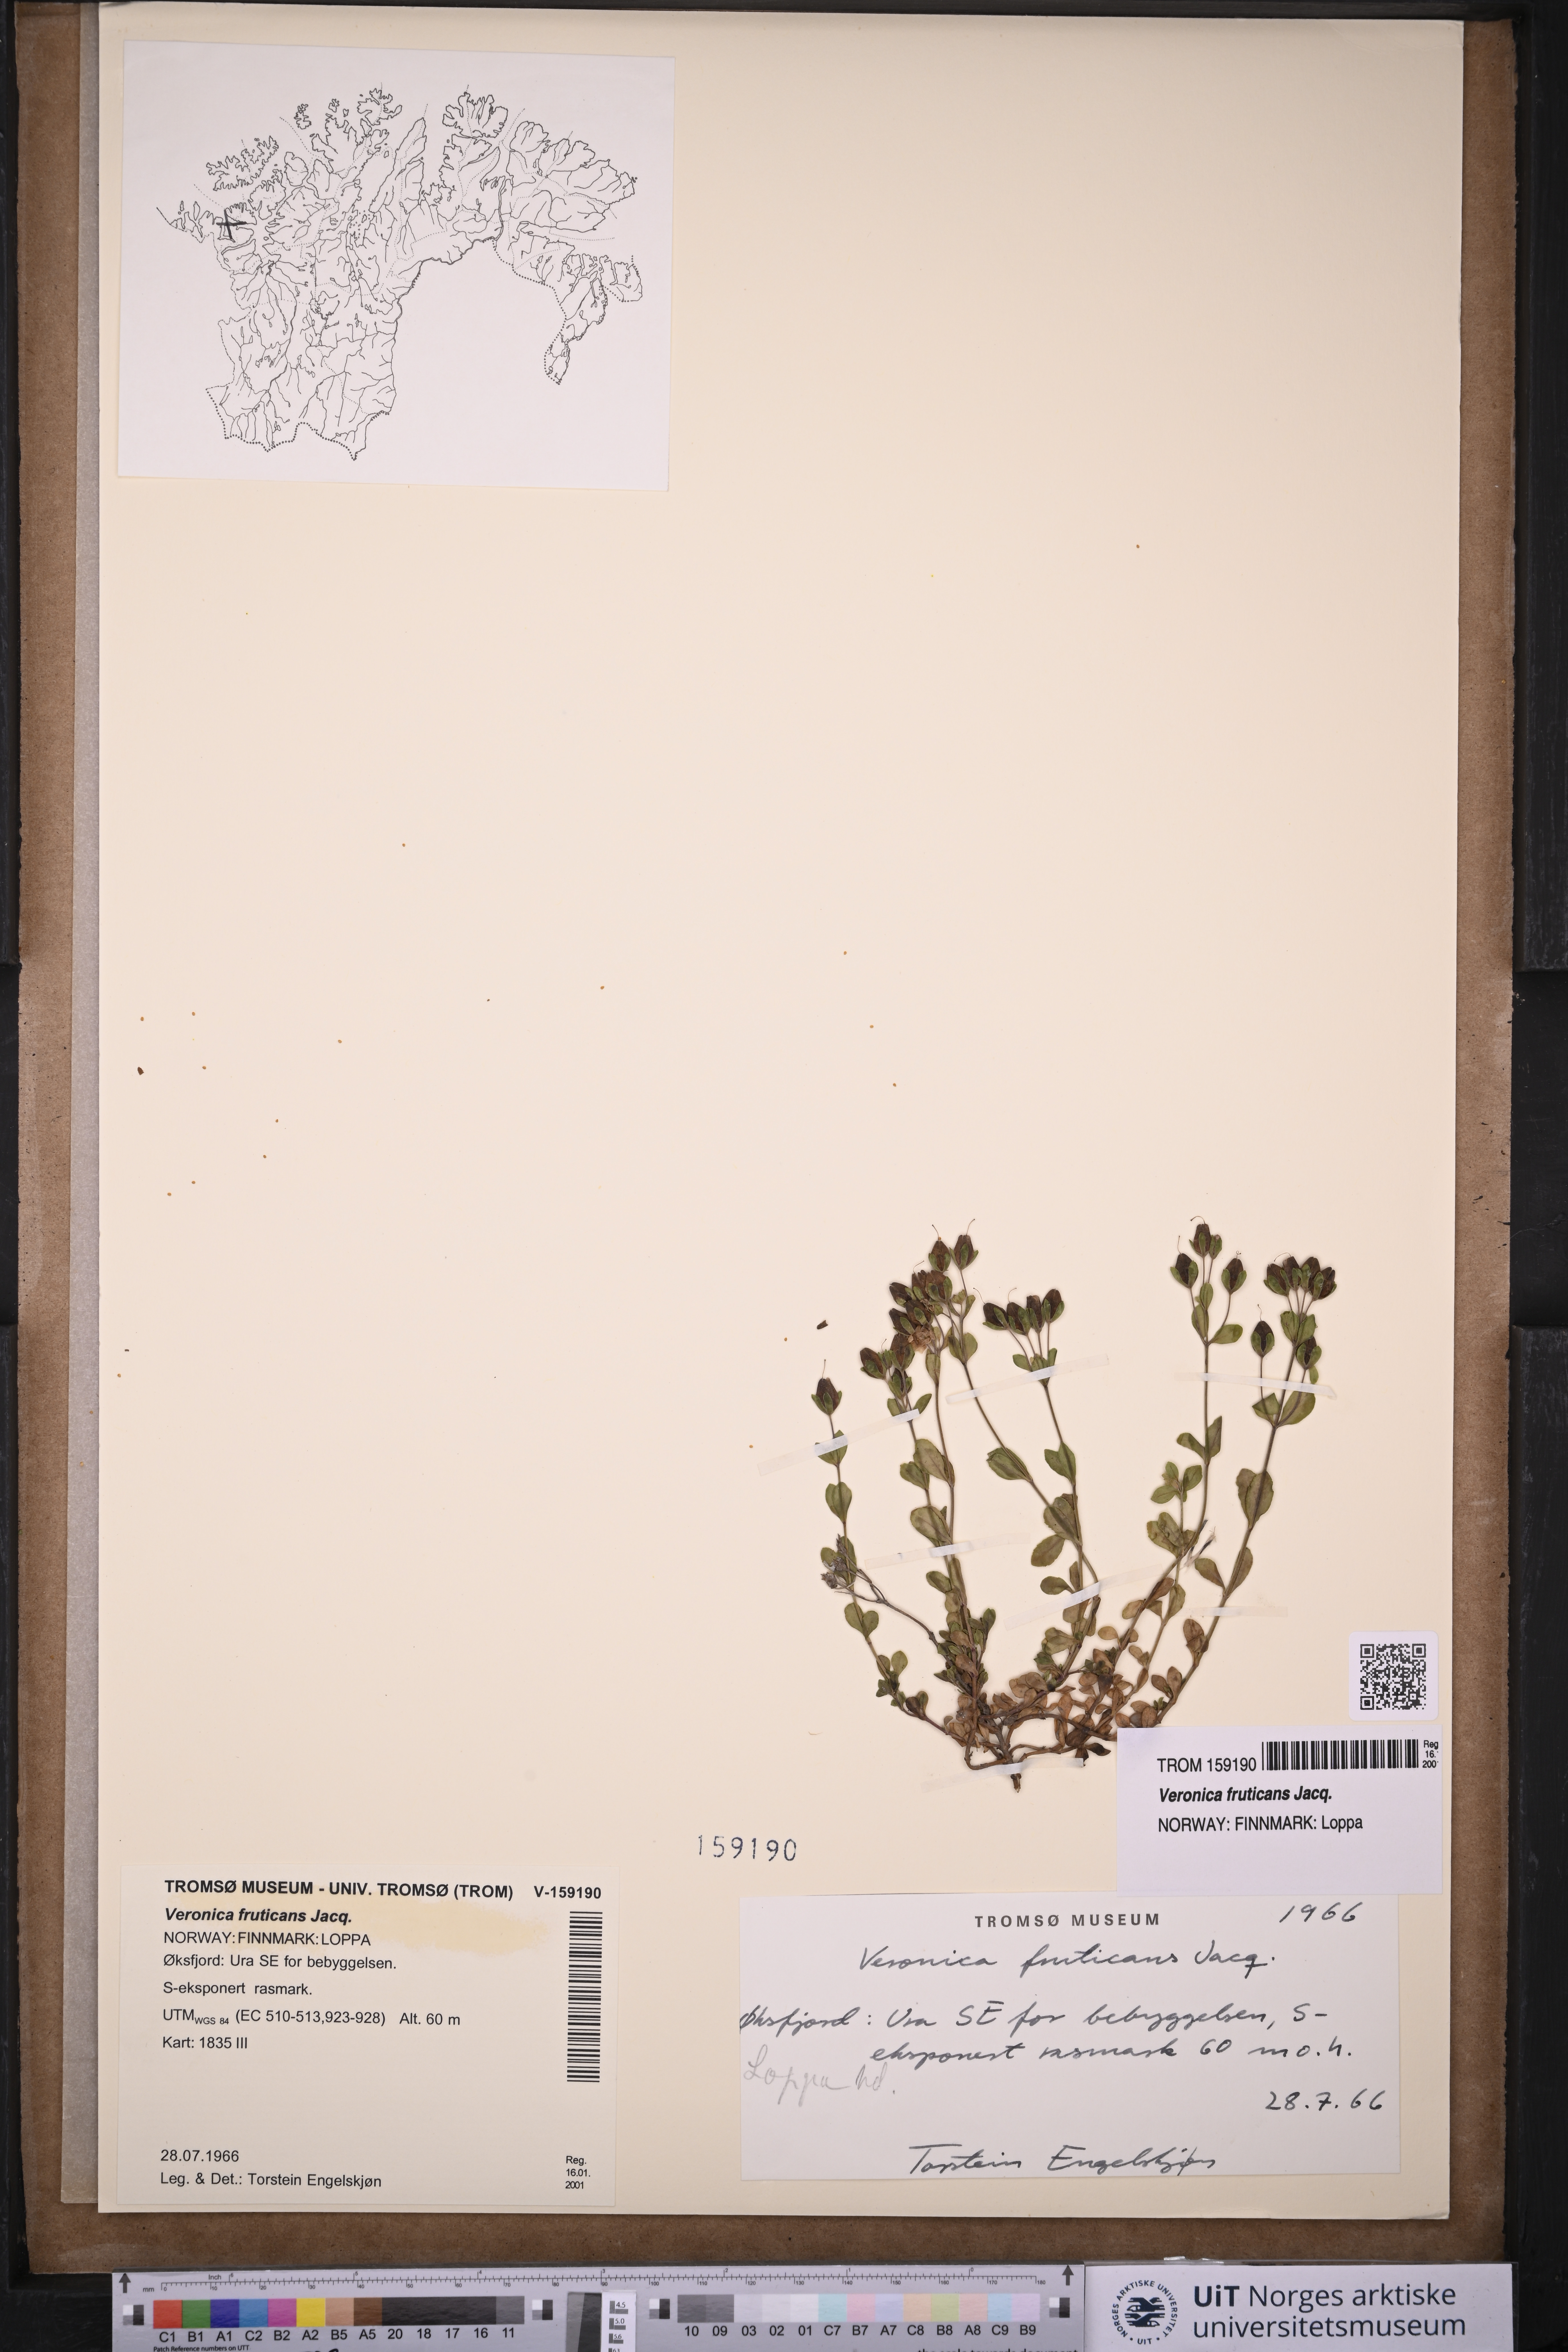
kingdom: Plantae
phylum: Tracheophyta
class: Magnoliopsida
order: Lamiales
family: Plantaginaceae
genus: Veronica
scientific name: Veronica fruticans
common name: Rock speedwell
